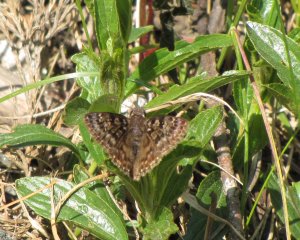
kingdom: Animalia
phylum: Arthropoda
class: Insecta
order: Lepidoptera
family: Hesperiidae
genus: Erynnis
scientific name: Erynnis martialis
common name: Mottled Duskywing
